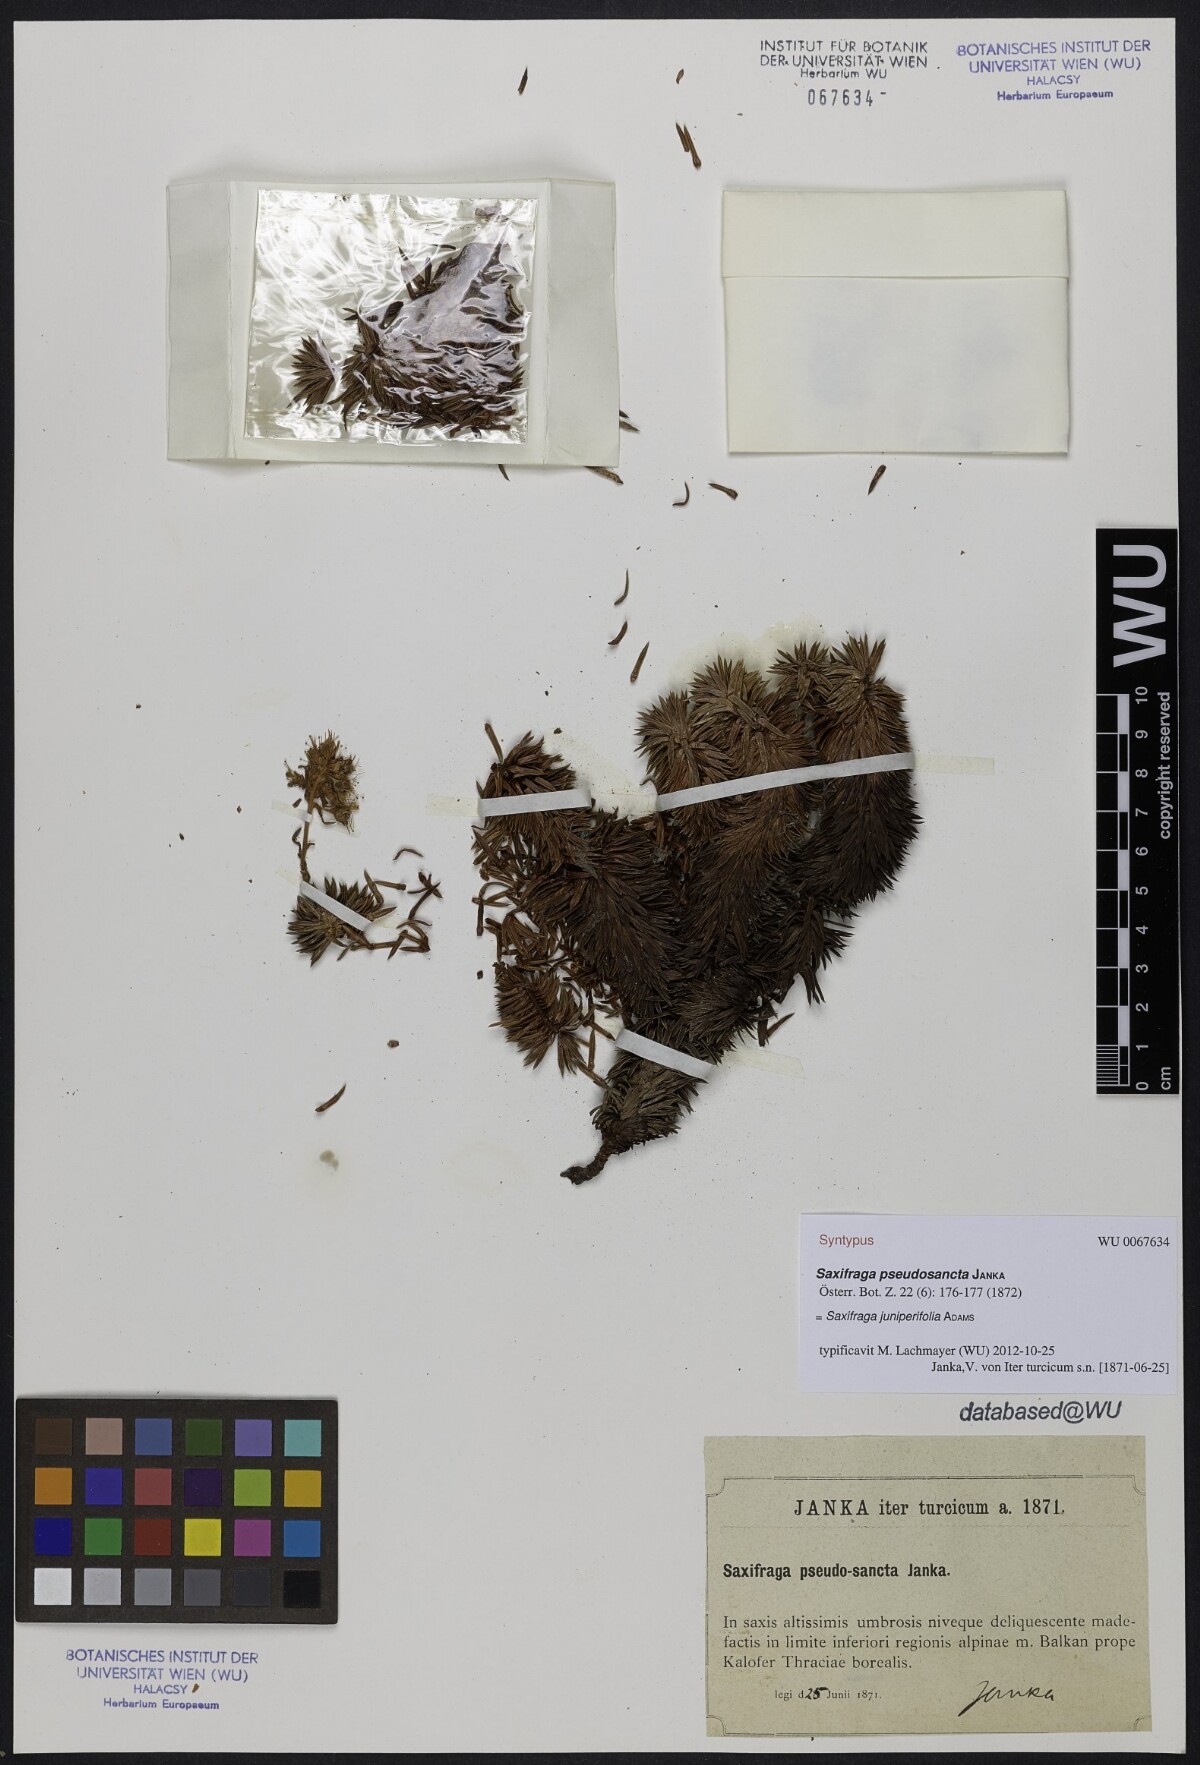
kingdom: Plantae
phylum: Tracheophyta
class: Magnoliopsida
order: Saxifragales
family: Saxifragaceae
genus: Saxifraga
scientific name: Saxifraga juniperifolia
